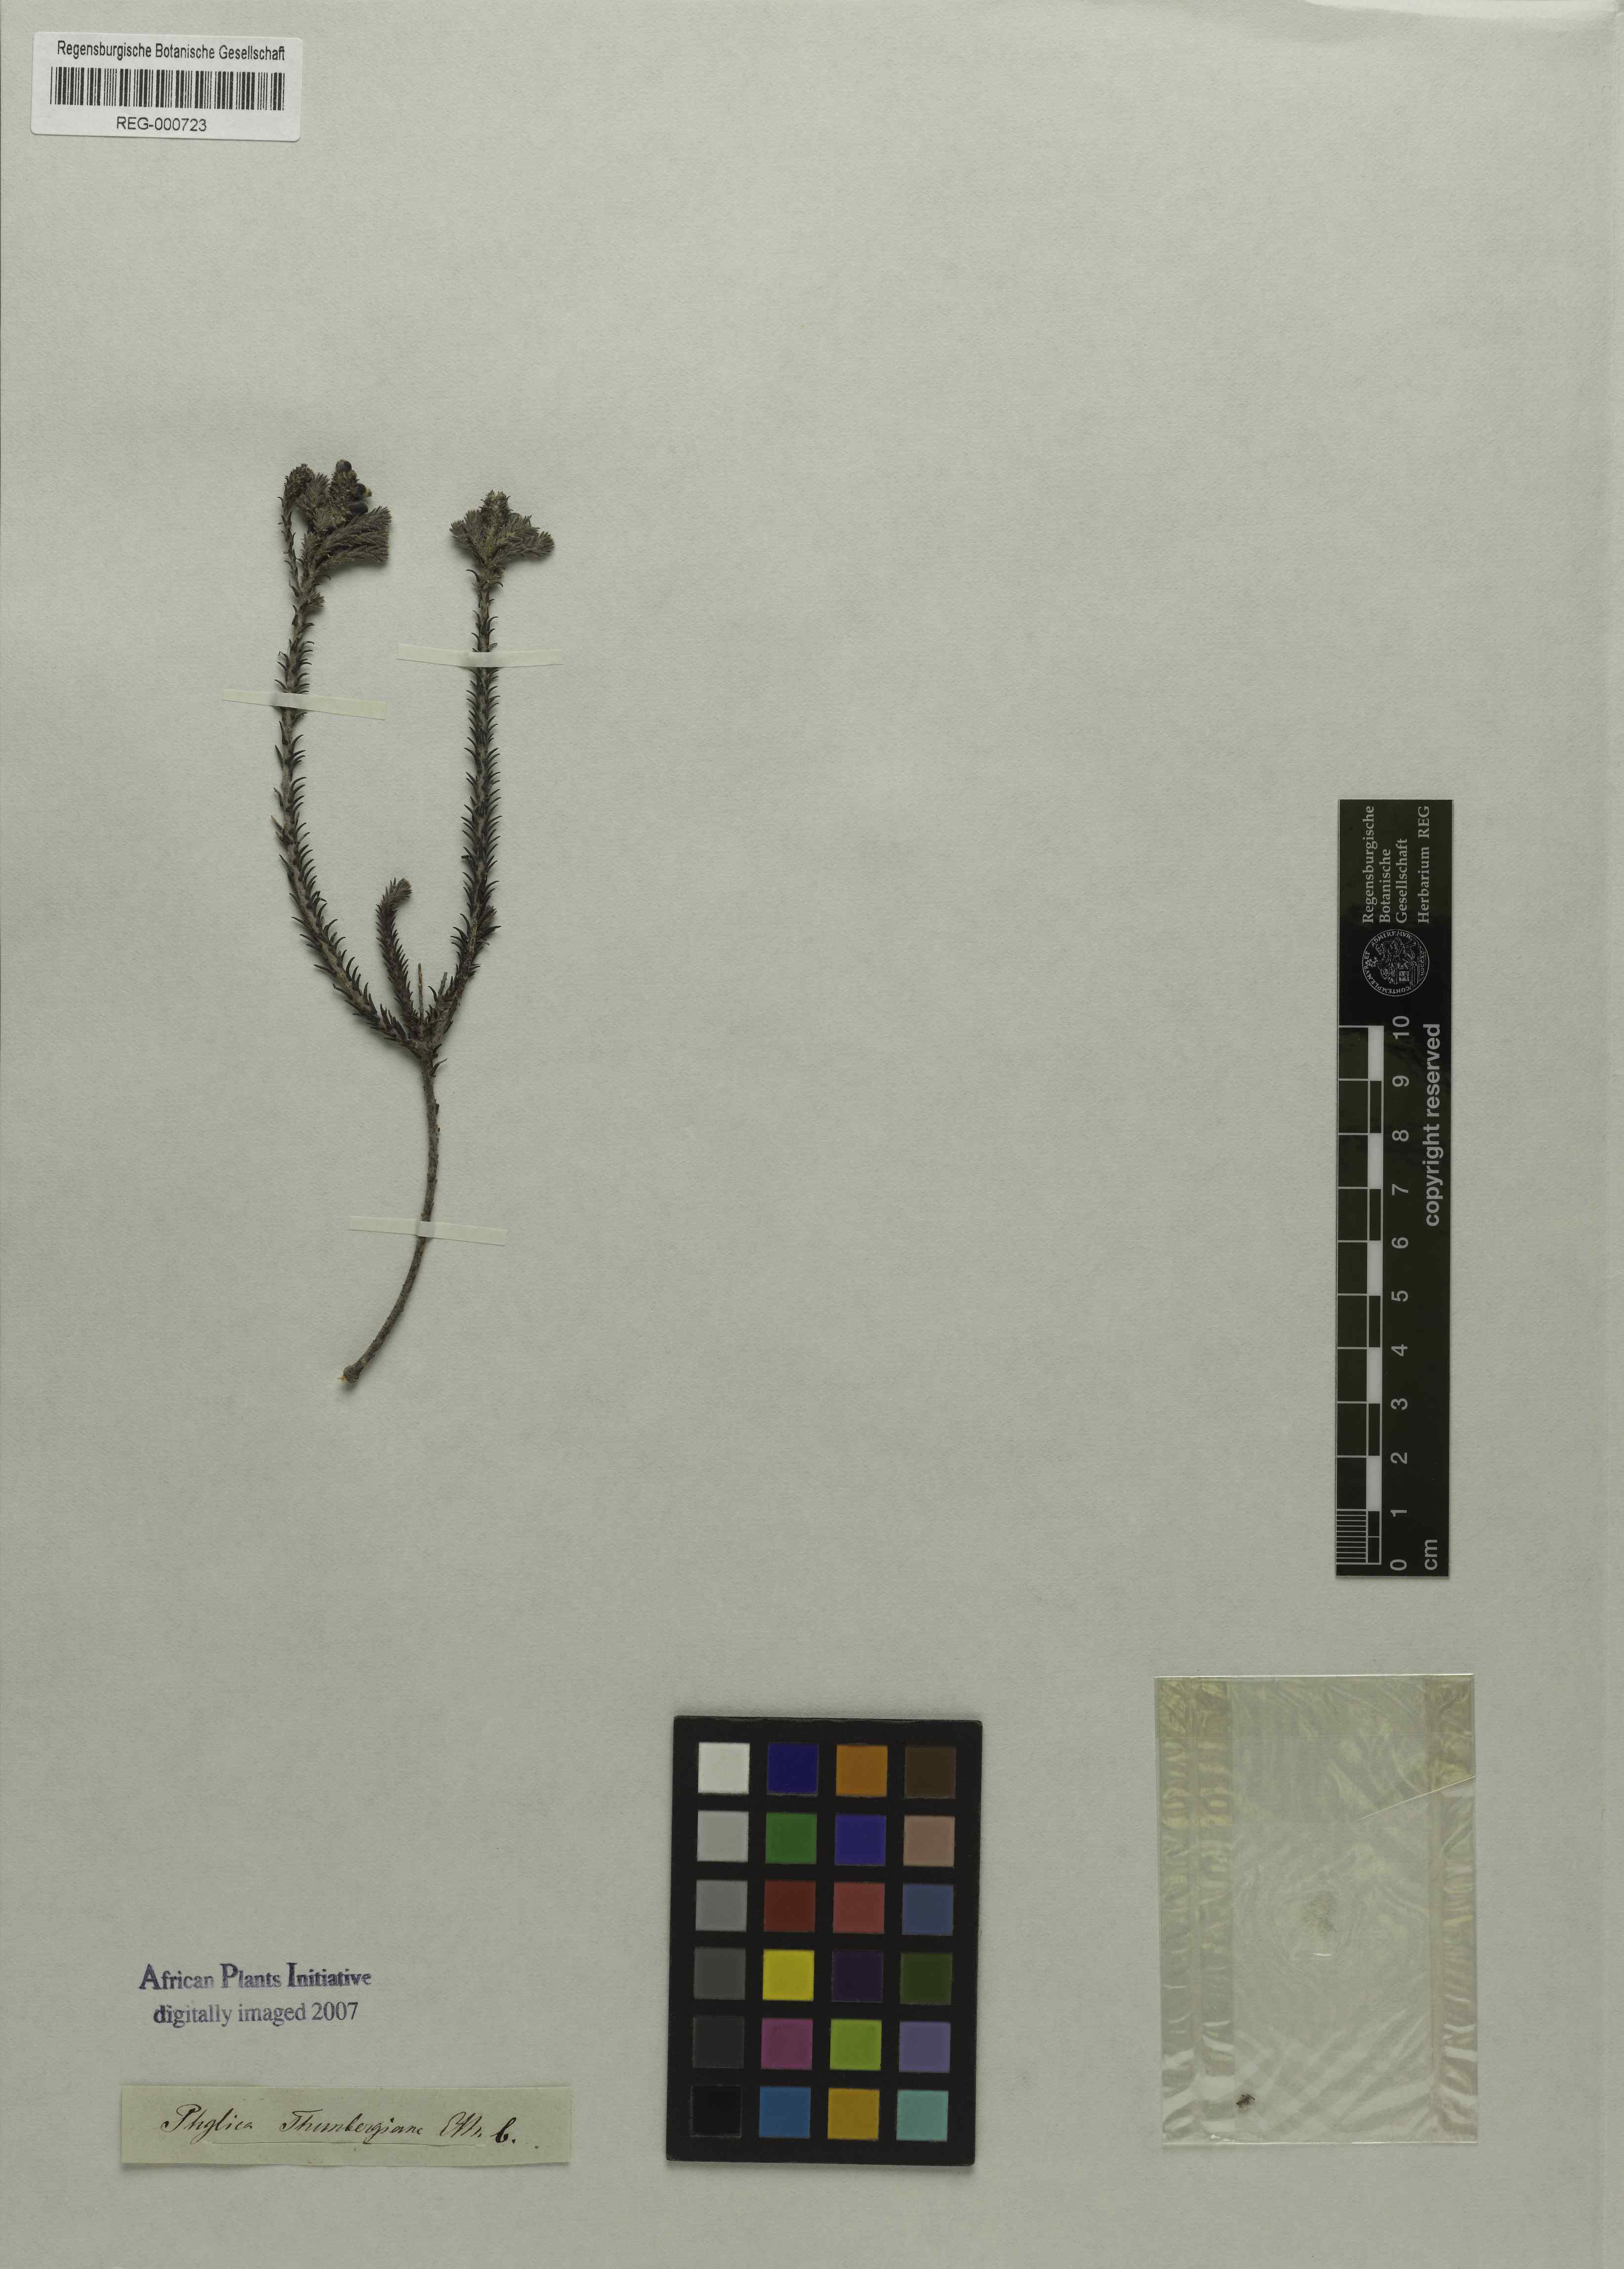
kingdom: Plantae
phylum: Tracheophyta
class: Magnoliopsida
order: Rosales
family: Rhamnaceae
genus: Phylica
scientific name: Phylica thunbergiana
